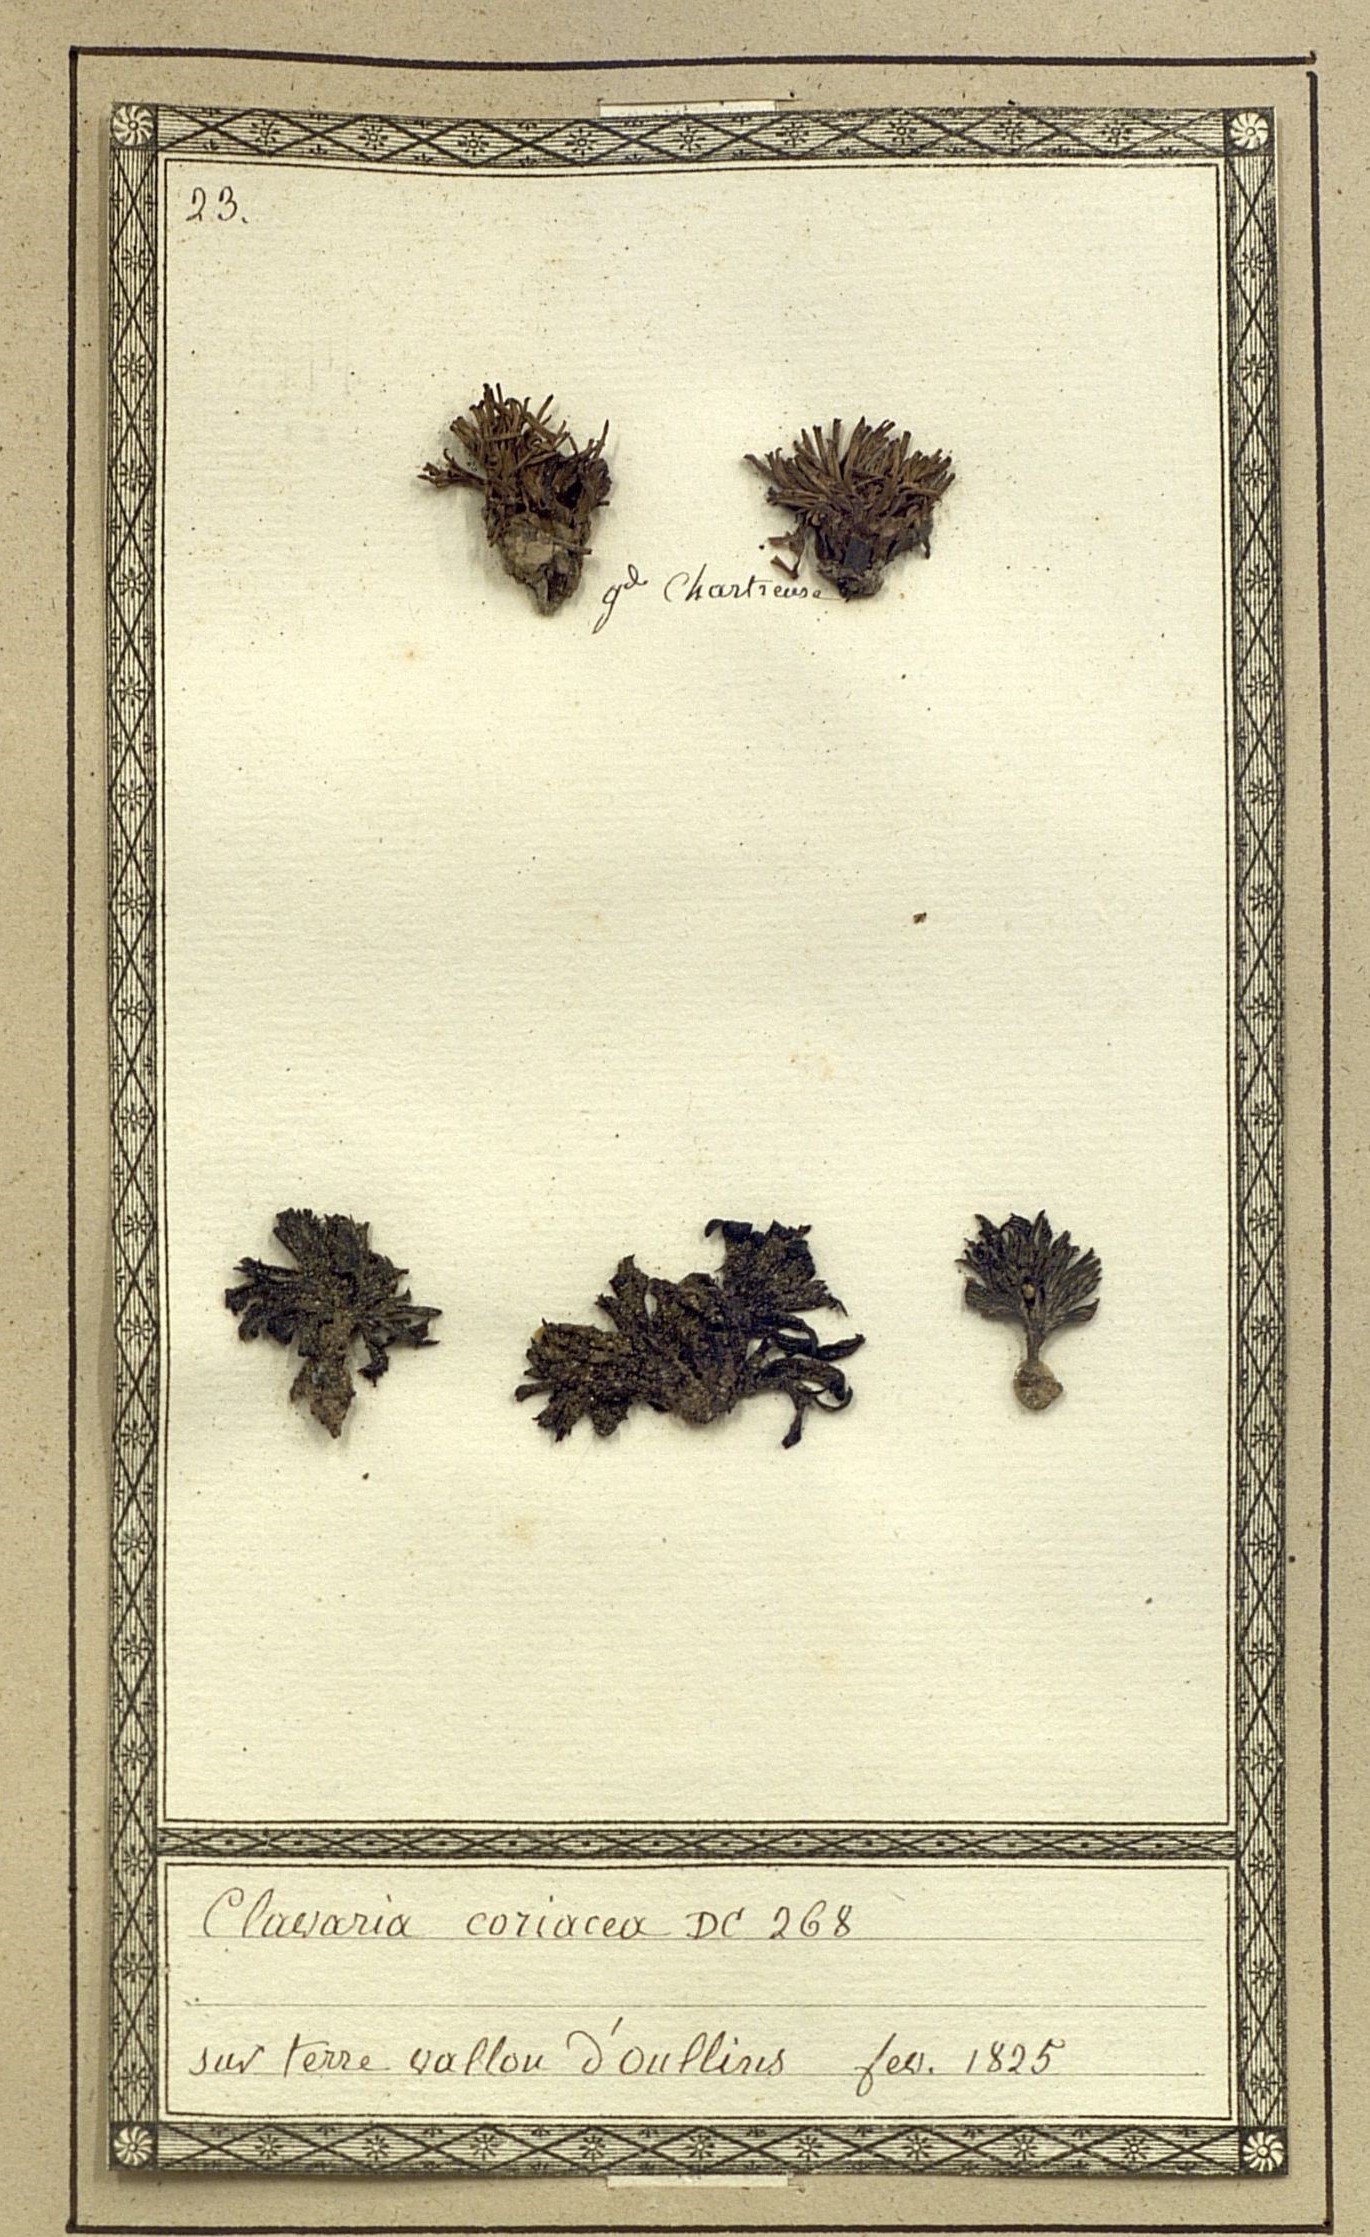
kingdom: Fungi
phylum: Basidiomycota
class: Agaricomycetes
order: Agaricales
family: Clavariaceae
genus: Clavaria
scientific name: Clavaria coriacea
